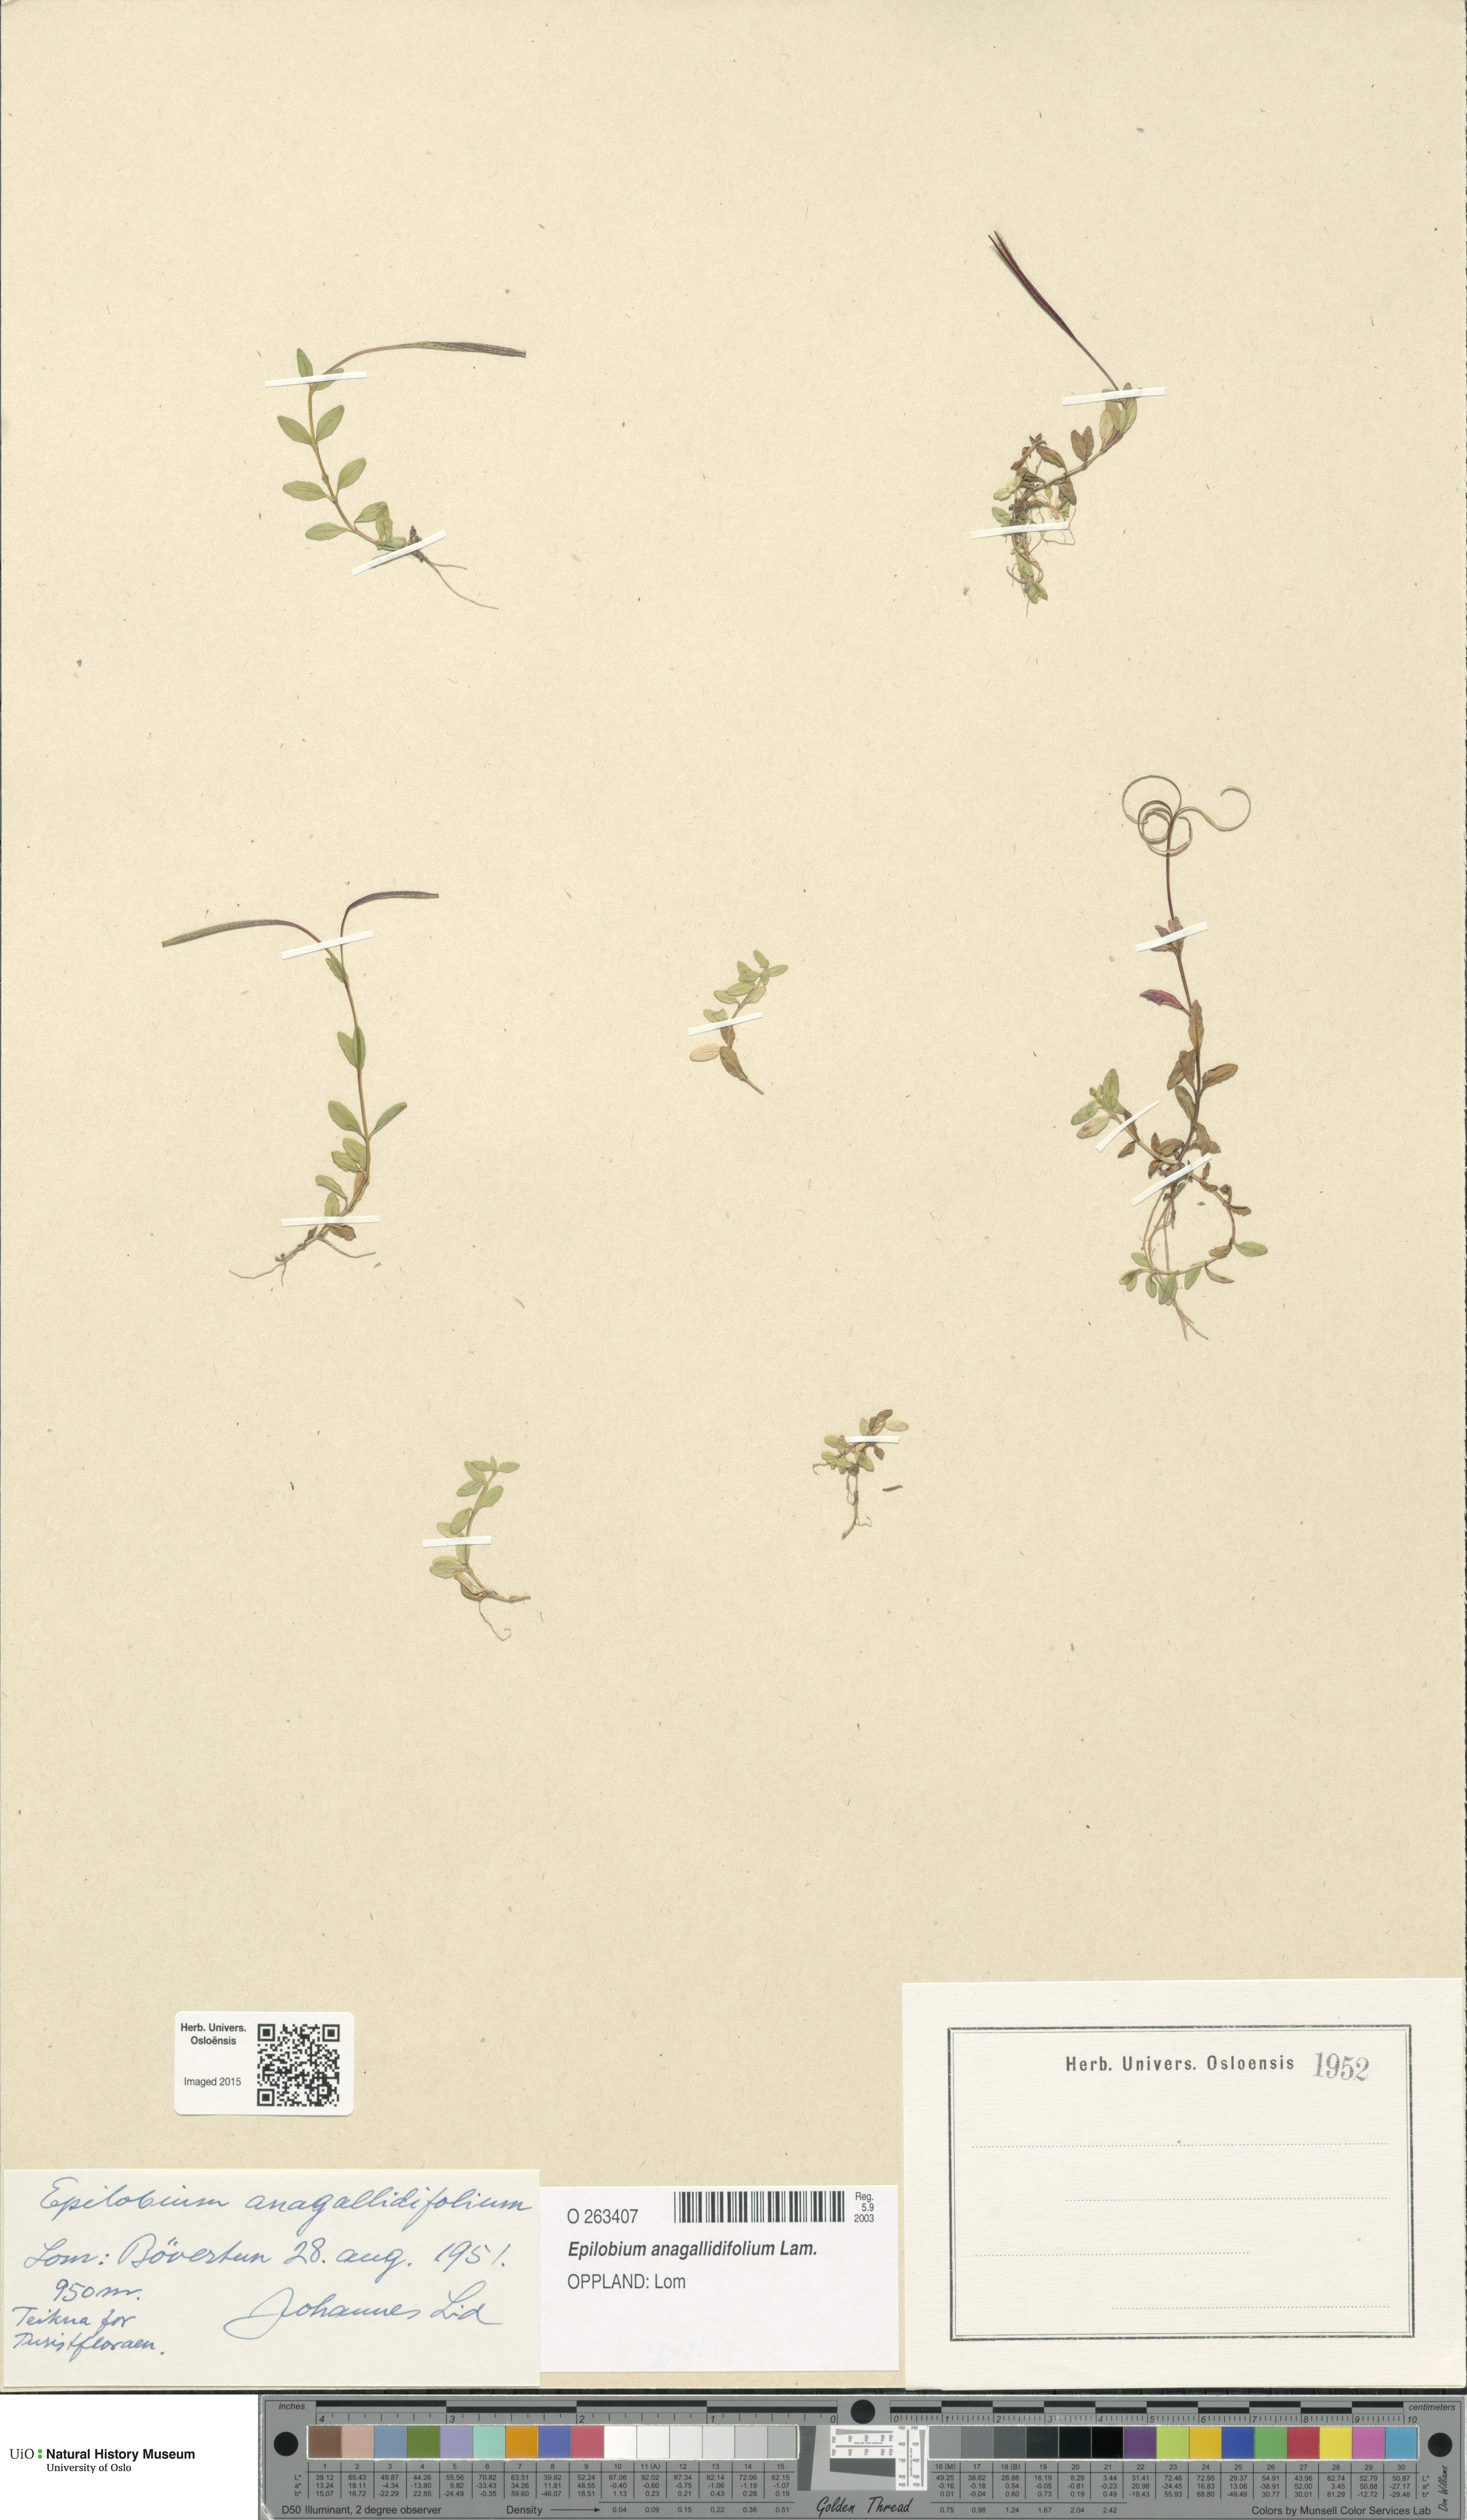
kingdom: Plantae
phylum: Tracheophyta
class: Magnoliopsida
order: Myrtales
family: Onagraceae
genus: Epilobium
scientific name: Epilobium anagallidifolium
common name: Alpine willowherb
